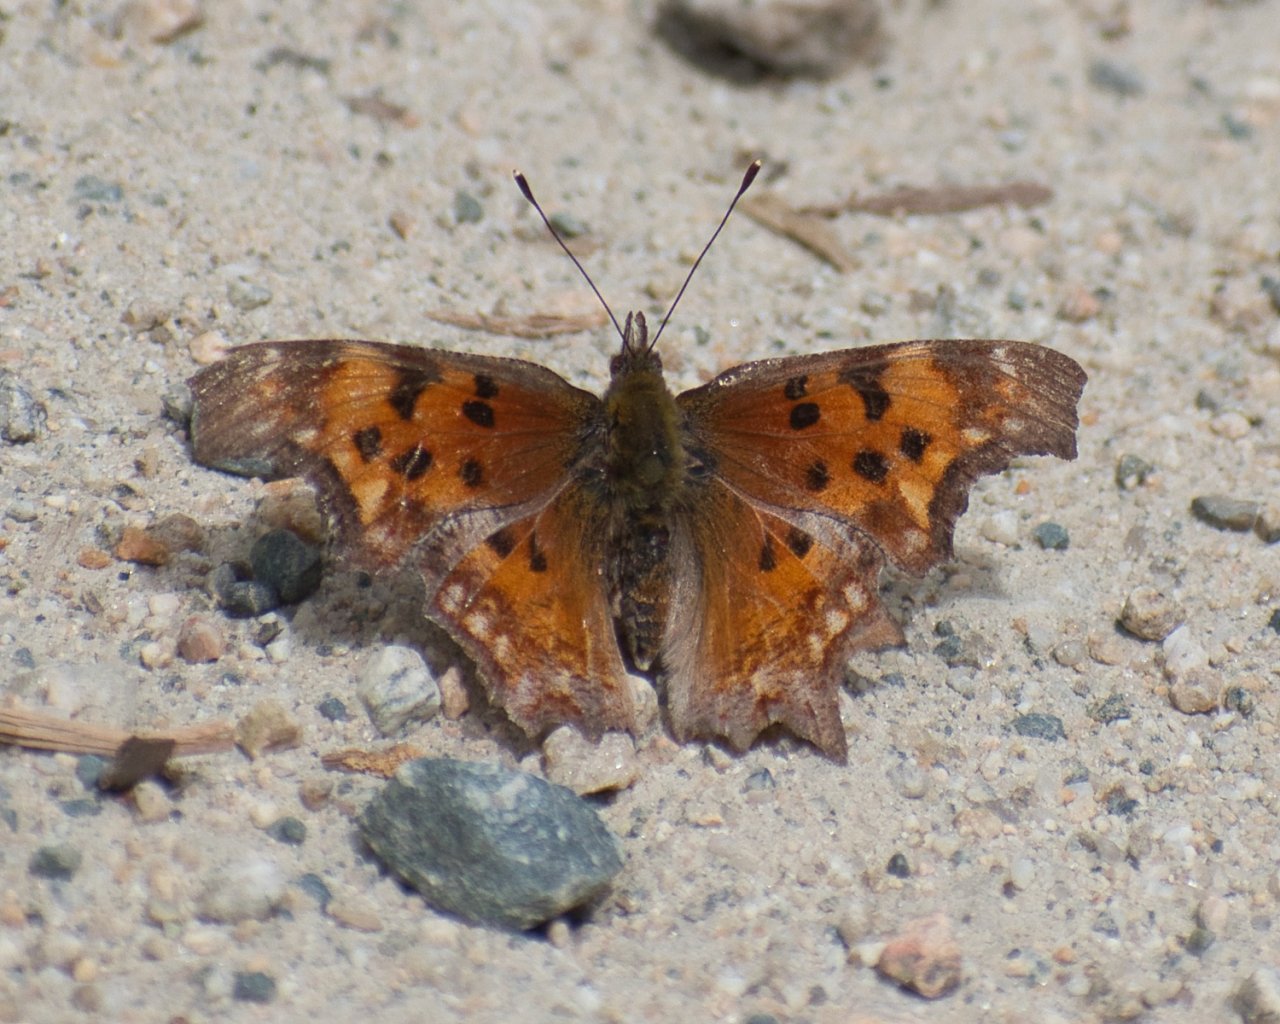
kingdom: Animalia
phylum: Arthropoda
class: Insecta
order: Lepidoptera
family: Nymphalidae
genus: Polygonia
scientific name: Polygonia gracilis
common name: Hoary Comma
